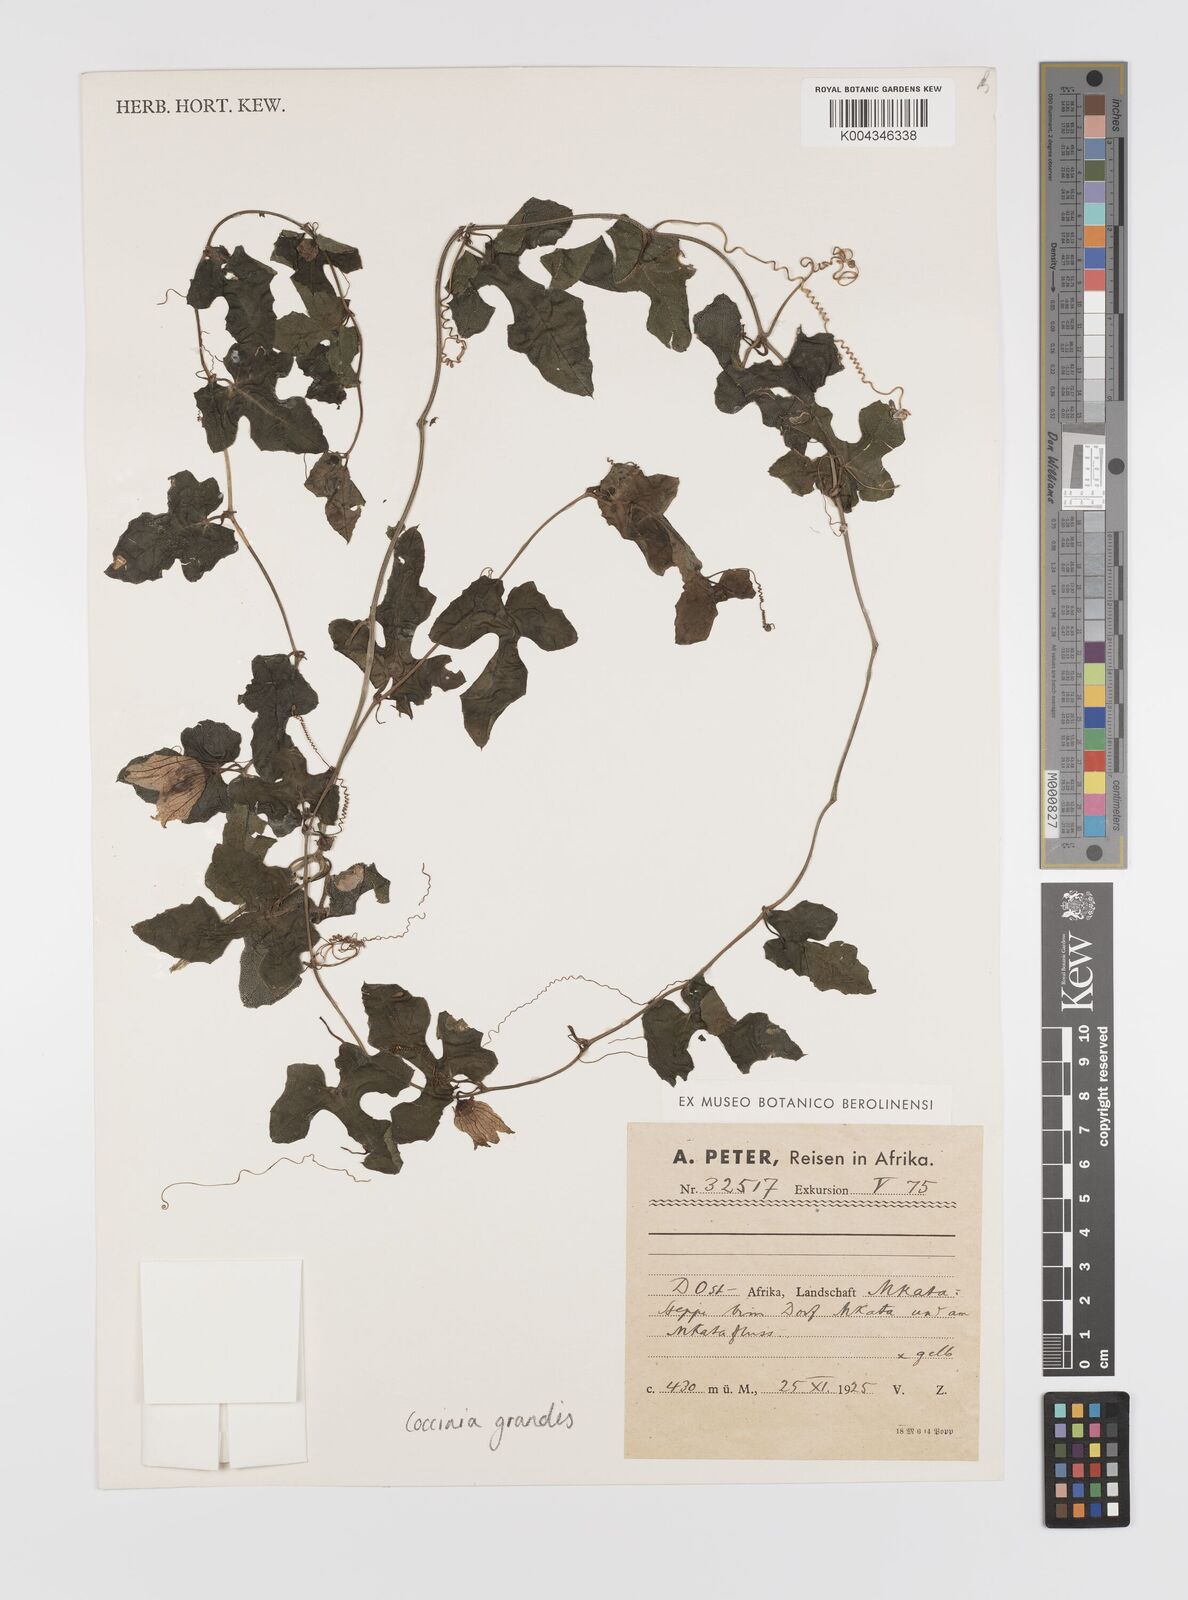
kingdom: Plantae
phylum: Tracheophyta
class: Magnoliopsida
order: Cucurbitales
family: Cucurbitaceae
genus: Coccinia
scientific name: Coccinia grandis
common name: Ivy gourd
